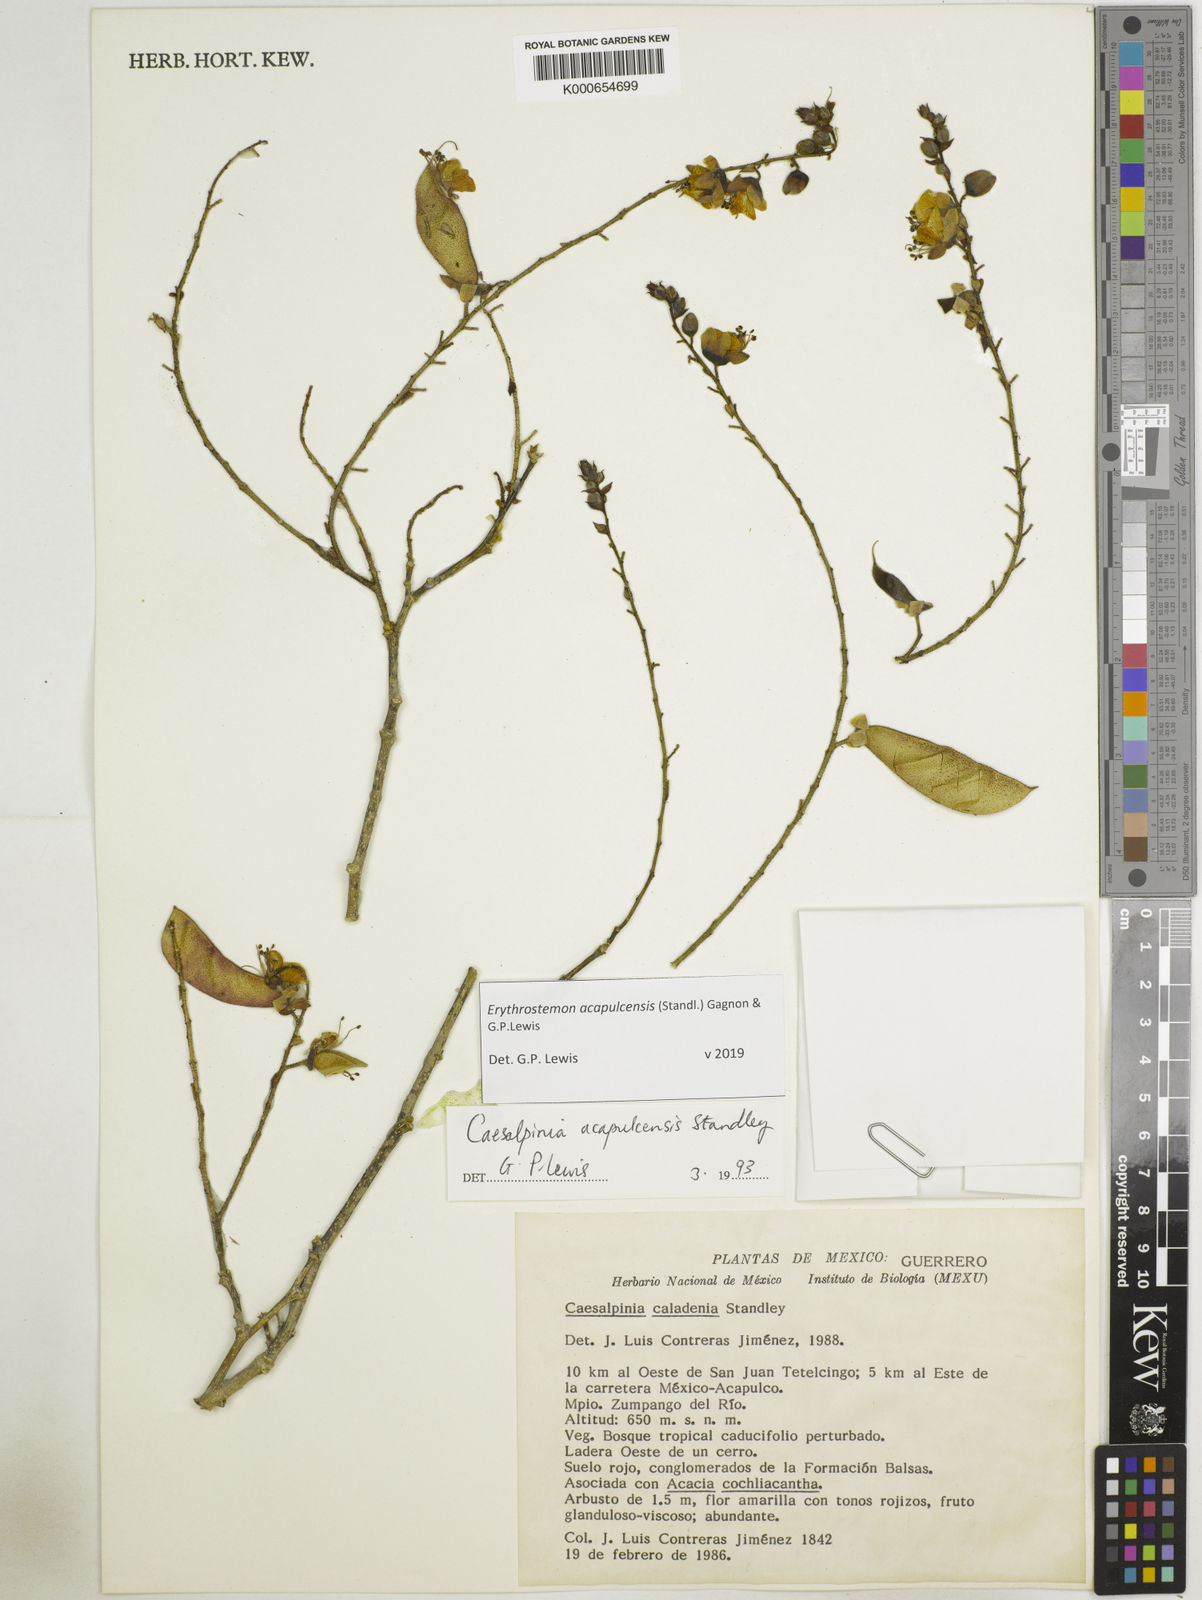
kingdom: Plantae
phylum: Tracheophyta
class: Magnoliopsida
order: Fabales
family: Fabaceae
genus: Erythrostemon
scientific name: Erythrostemon acapulcensis
